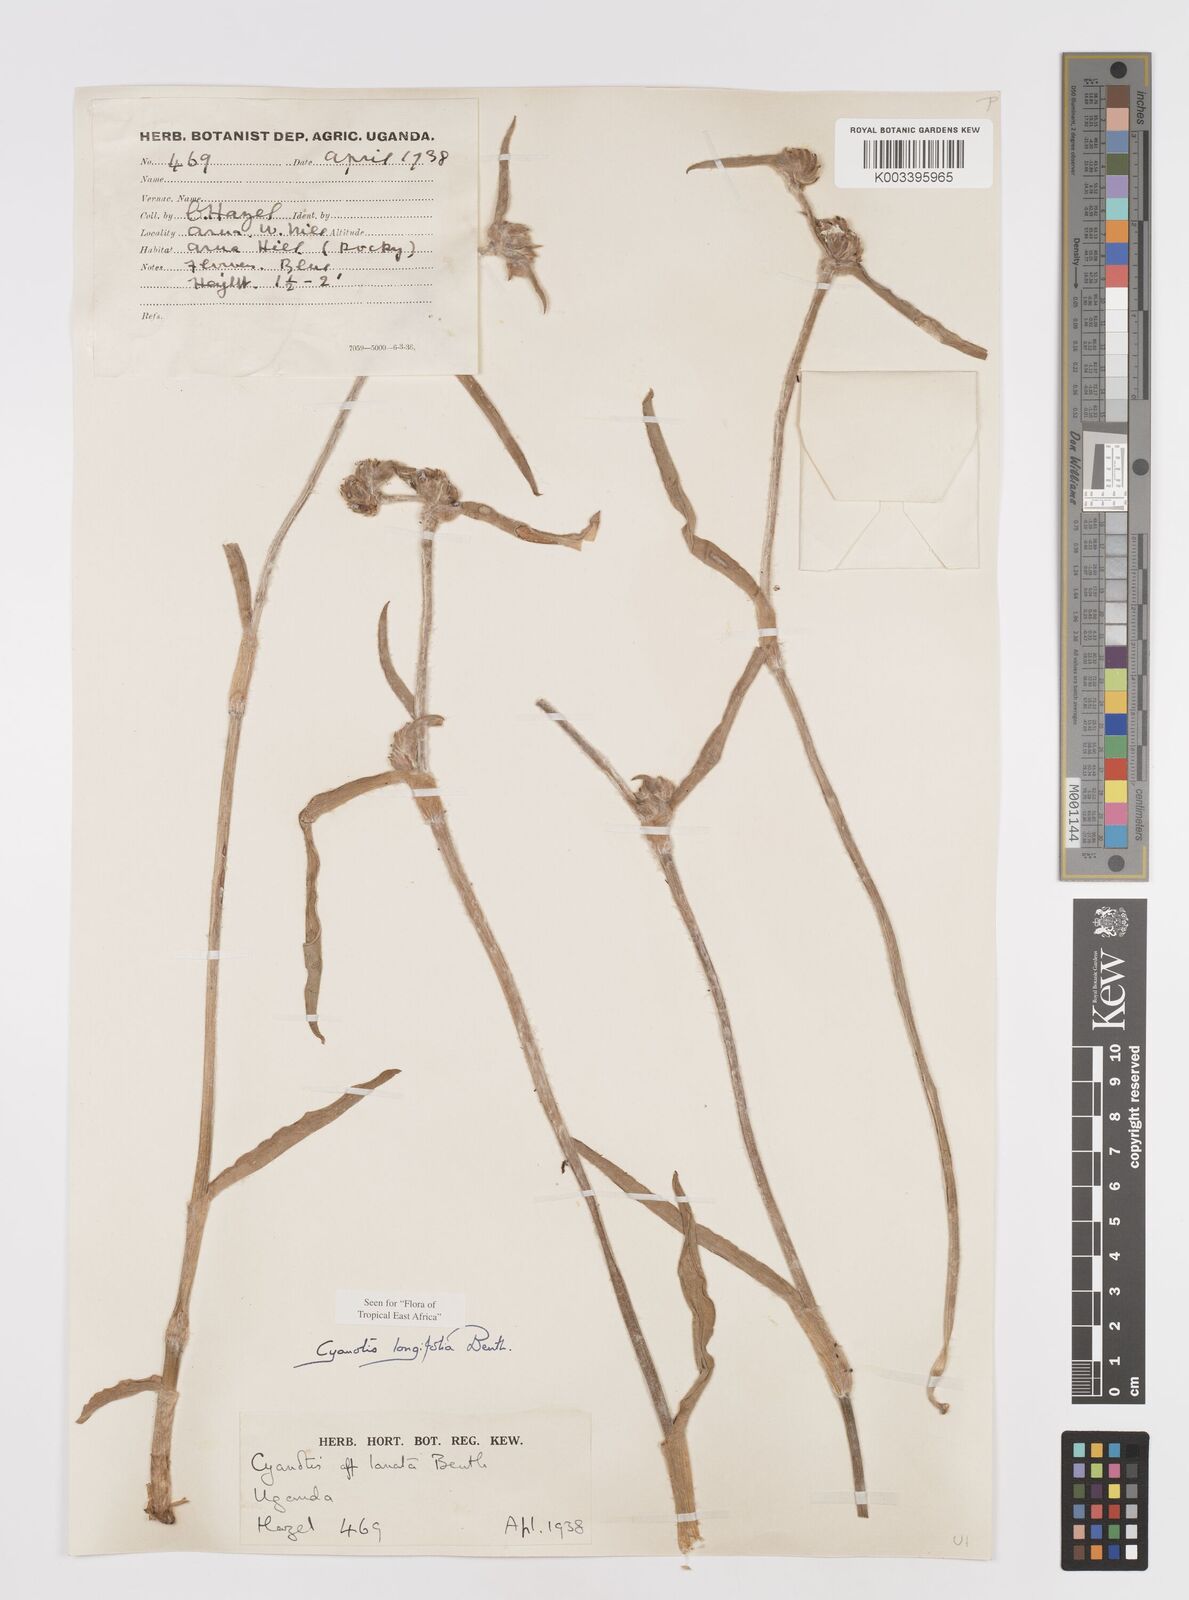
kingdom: Plantae
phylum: Tracheophyta
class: Liliopsida
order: Commelinales
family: Commelinaceae
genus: Cyanotis
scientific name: Cyanotis longifolia
